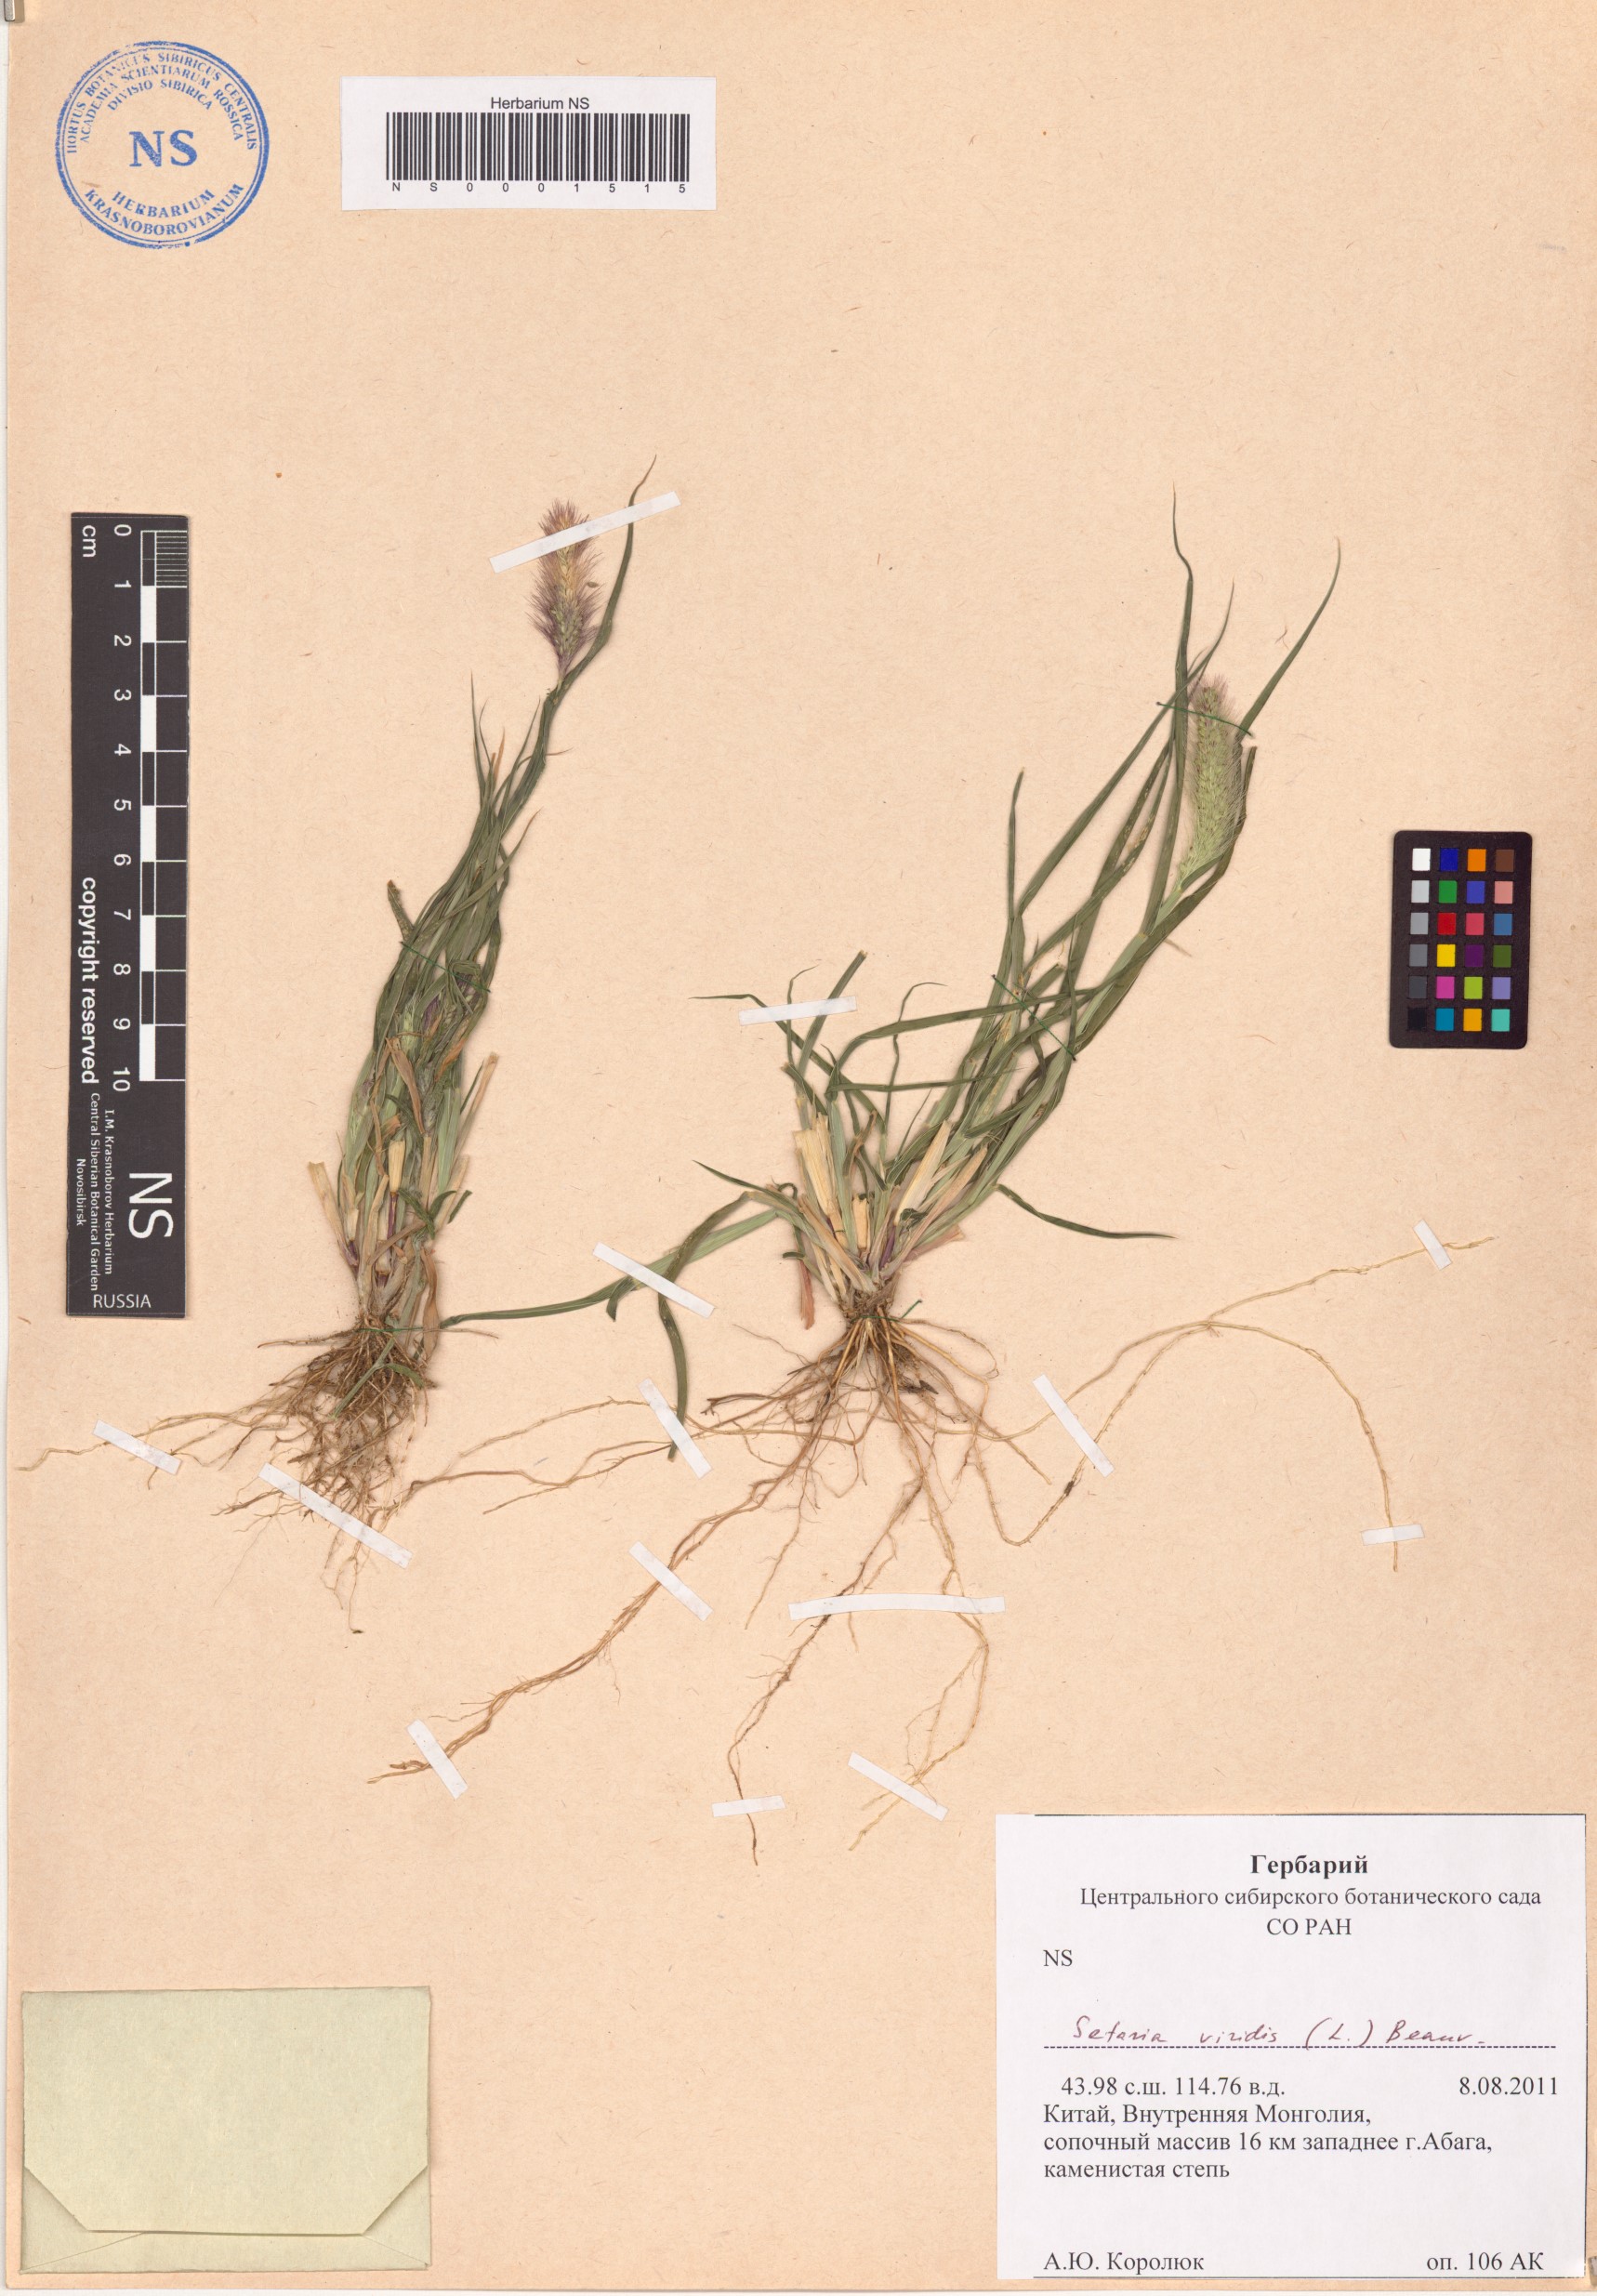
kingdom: Plantae
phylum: Tracheophyta
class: Liliopsida
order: Poales
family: Poaceae
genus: Setaria
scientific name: Setaria viridis
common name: Green bristlegrass
